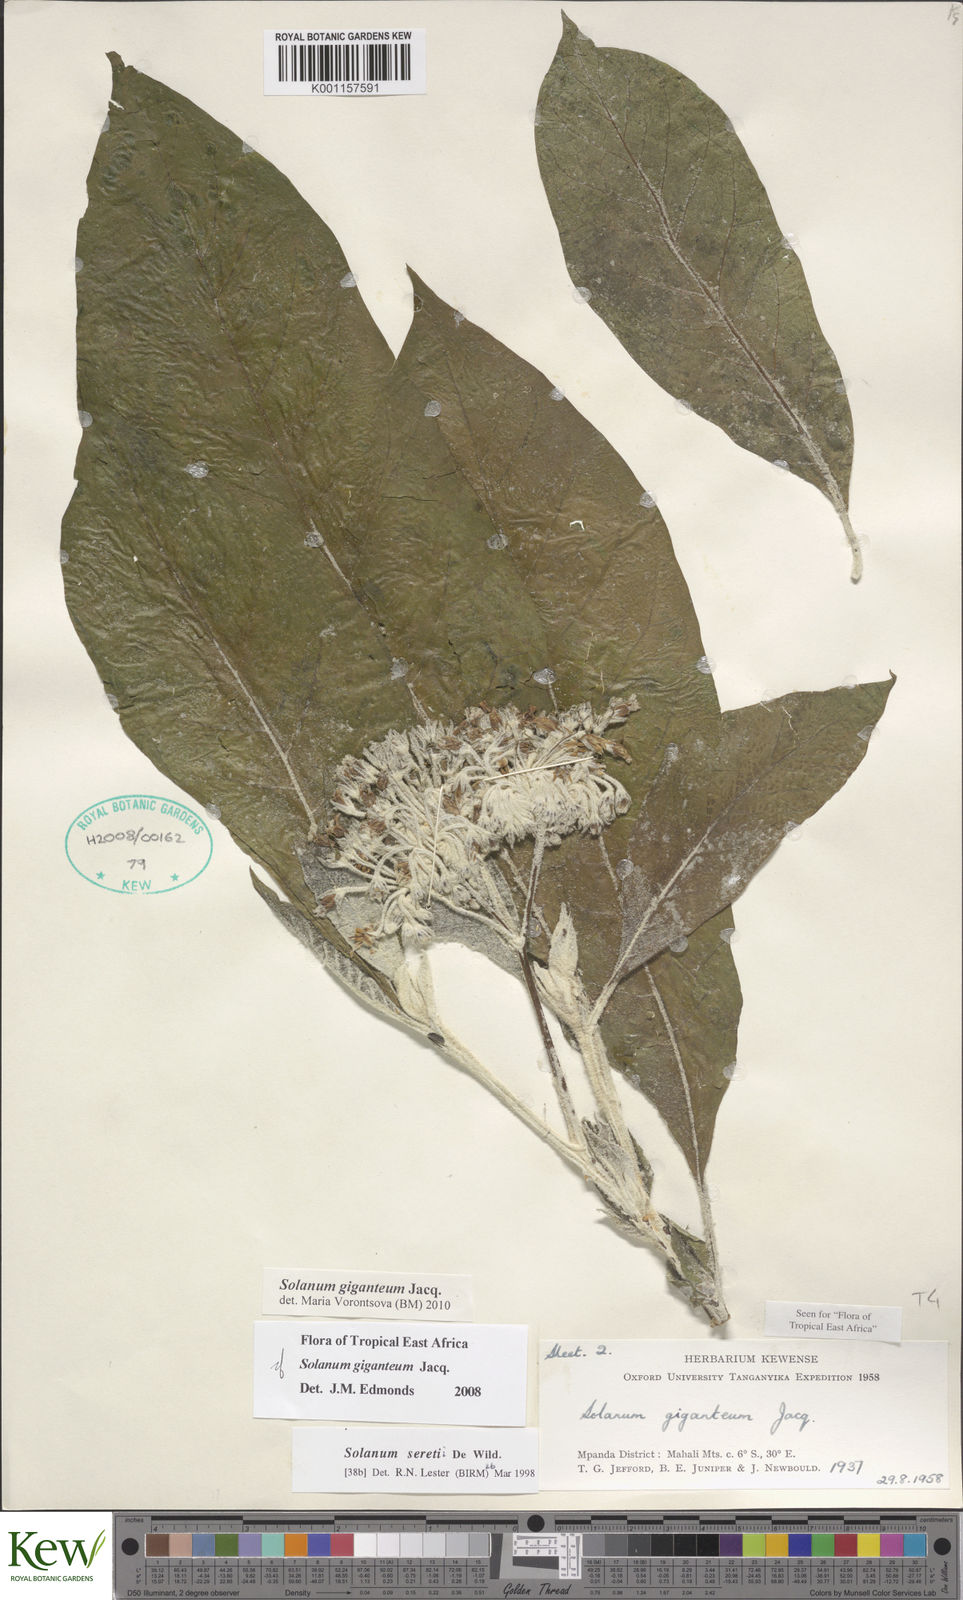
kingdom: Plantae
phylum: Tracheophyta
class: Magnoliopsida
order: Solanales
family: Solanaceae
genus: Solanum
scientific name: Solanum giganteum
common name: Healing-leaf-tree
